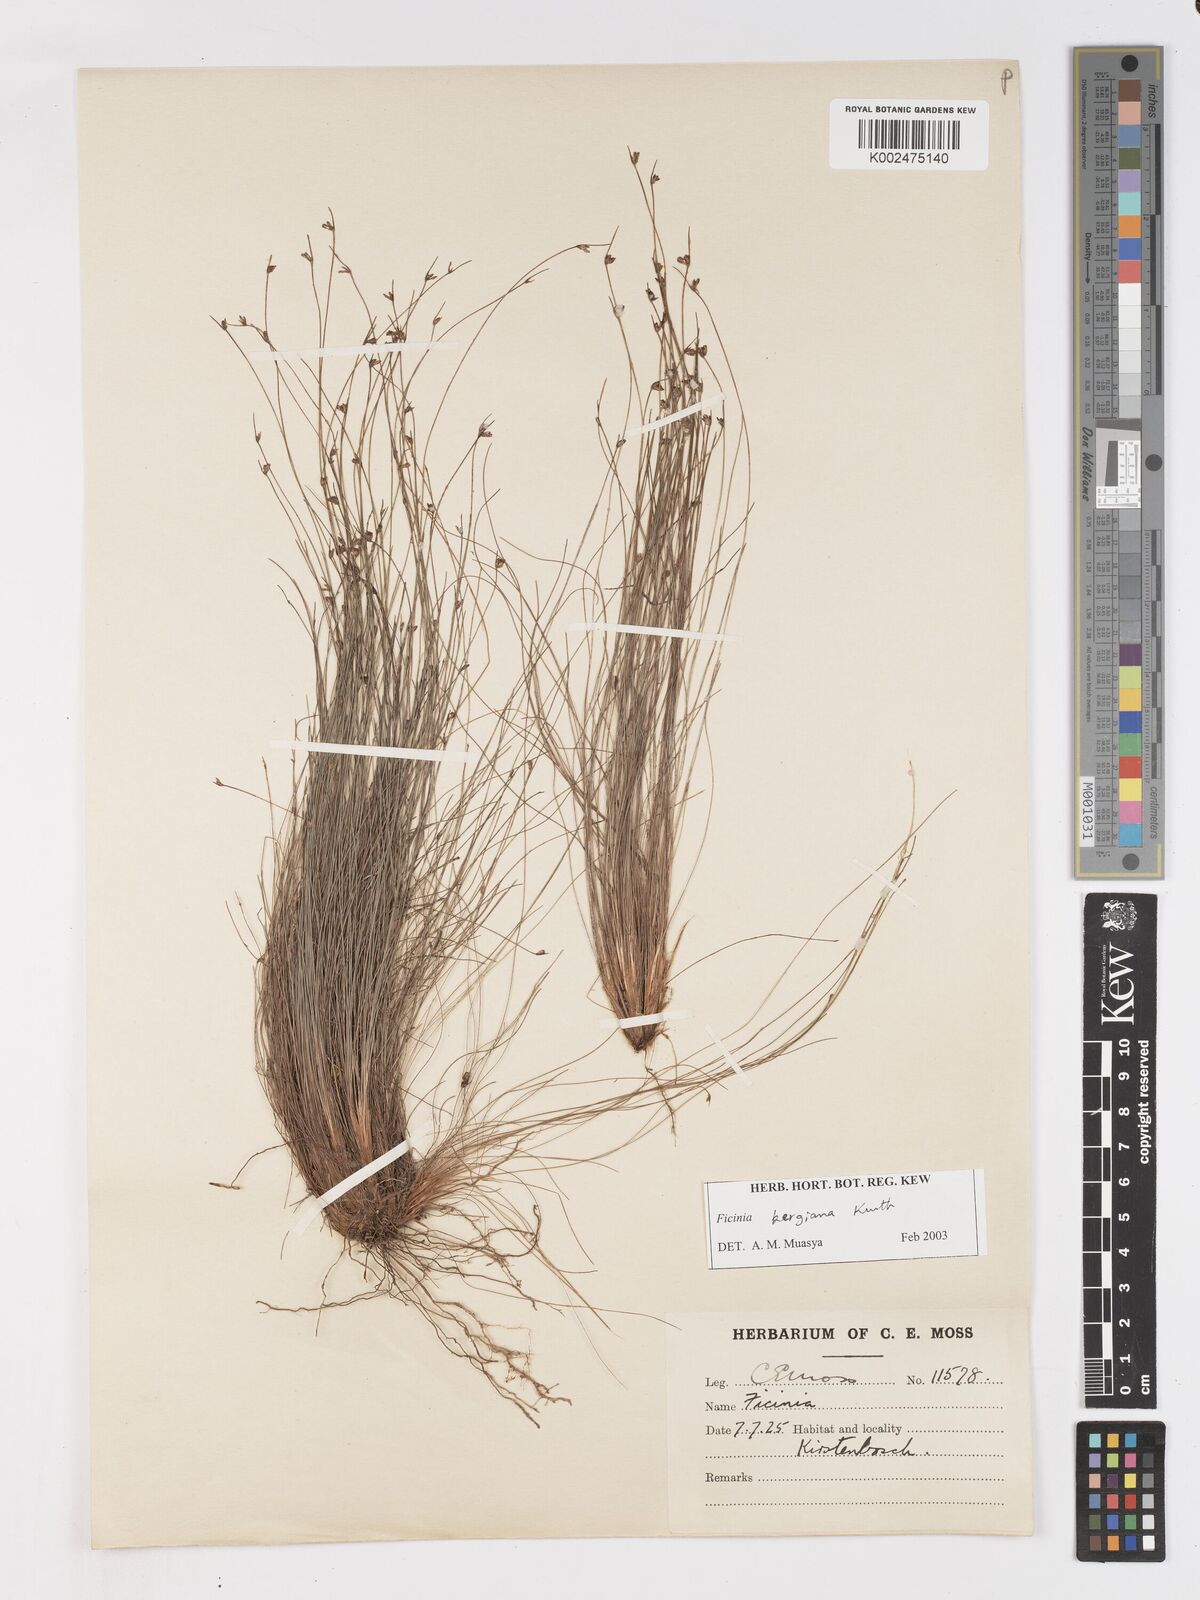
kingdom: Plantae
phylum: Tracheophyta
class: Liliopsida
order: Poales
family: Cyperaceae
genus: Ficinia
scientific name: Ficinia tristachya
